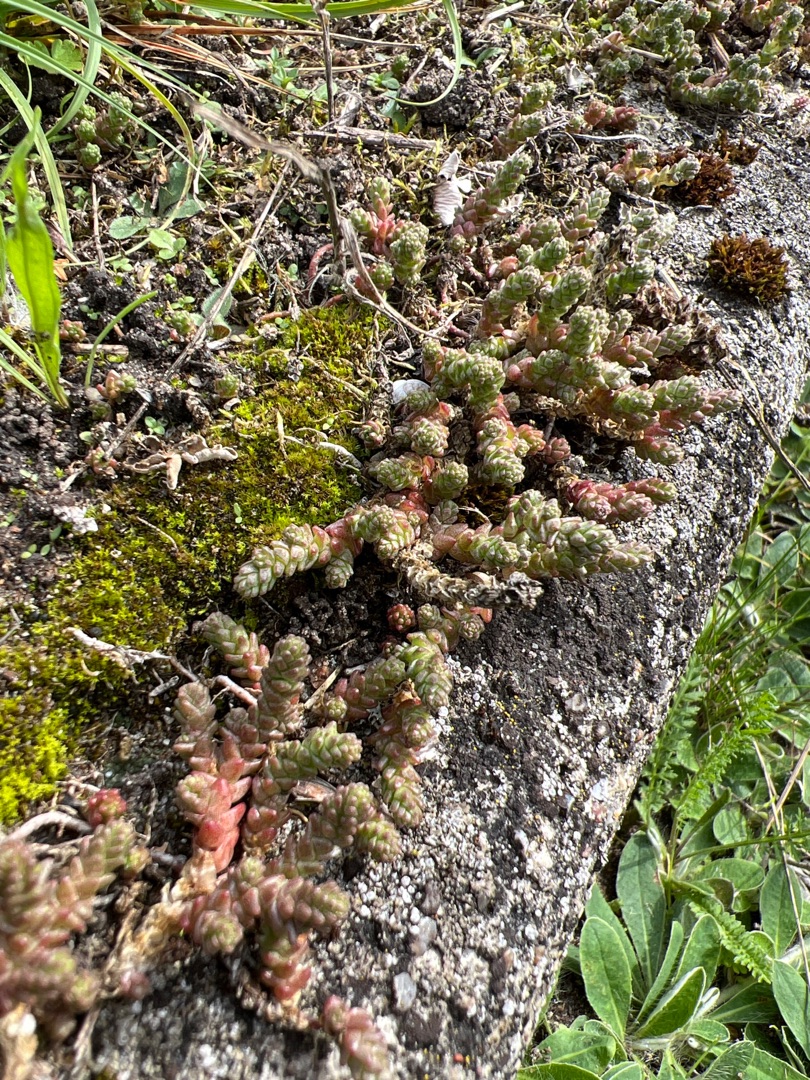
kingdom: Plantae
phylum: Tracheophyta
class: Magnoliopsida
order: Saxifragales
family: Crassulaceae
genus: Sedum
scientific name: Sedum acre
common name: Bidende stenurt
